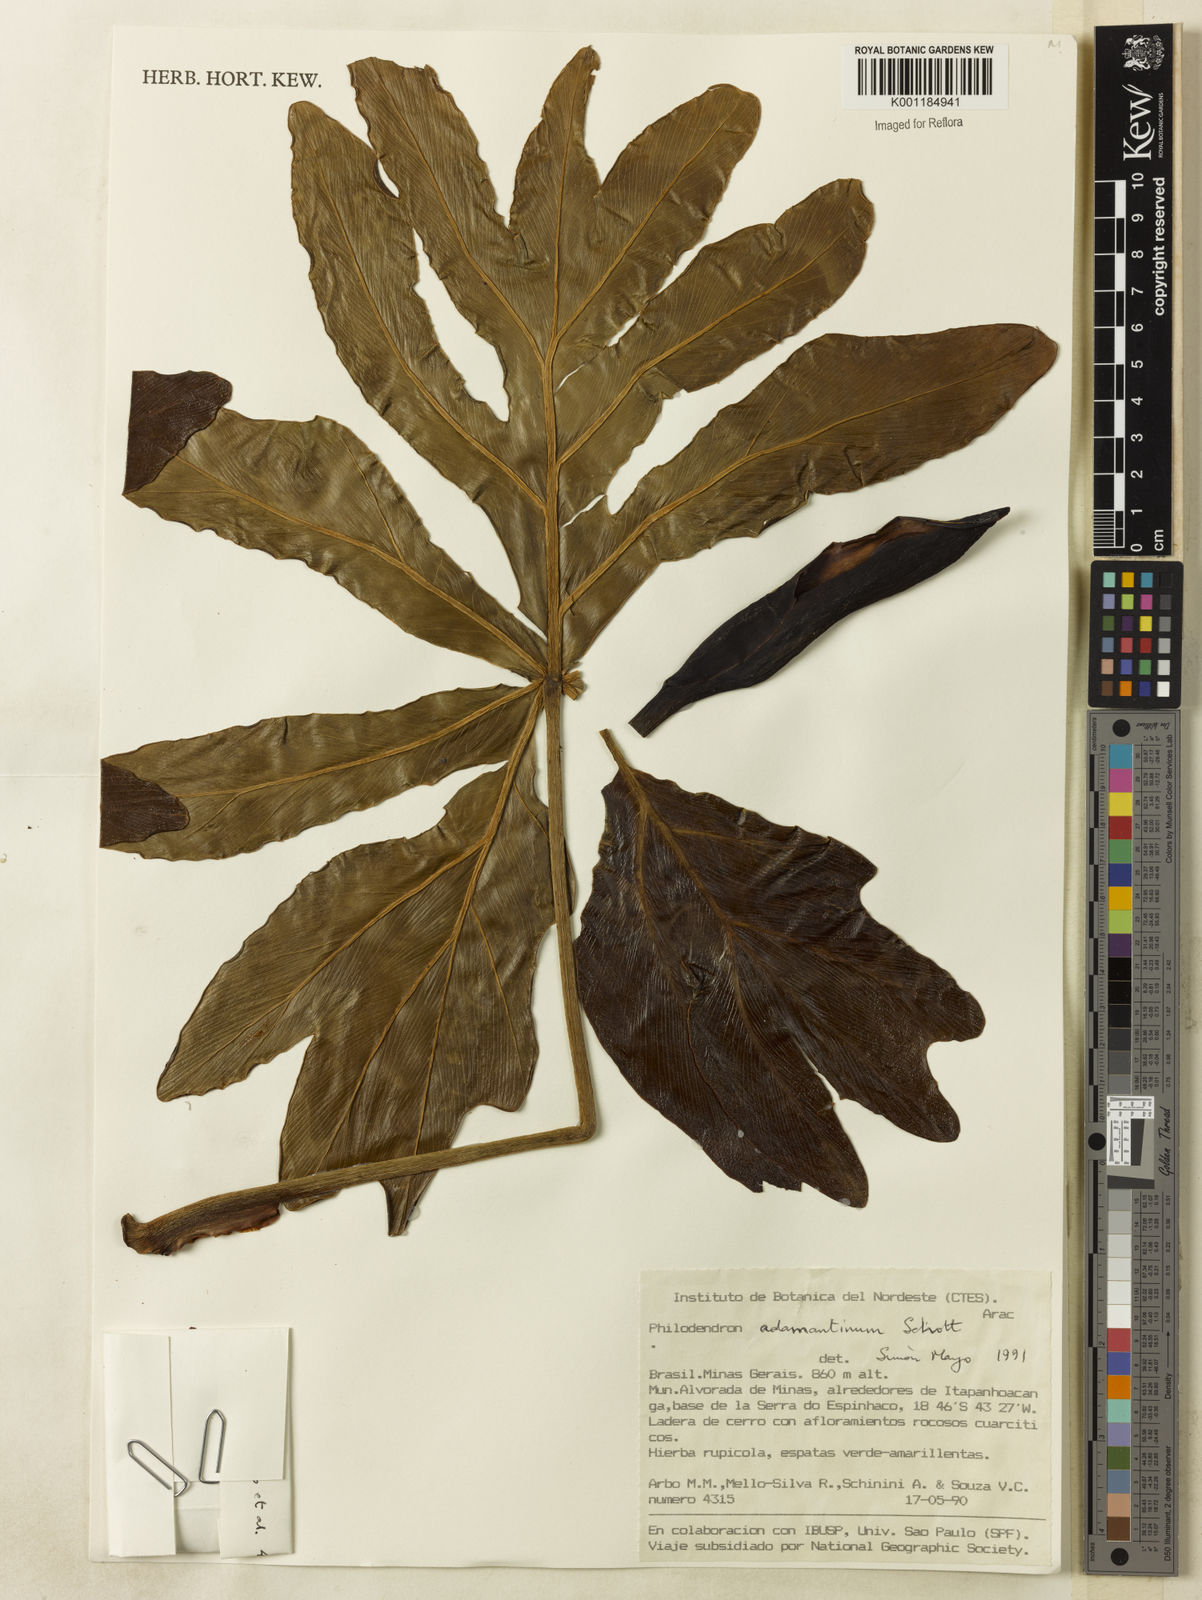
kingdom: Plantae
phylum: Tracheophyta
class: Liliopsida
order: Alismatales
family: Araceae
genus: Thaumatophyllum
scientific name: Thaumatophyllum adamantinum
